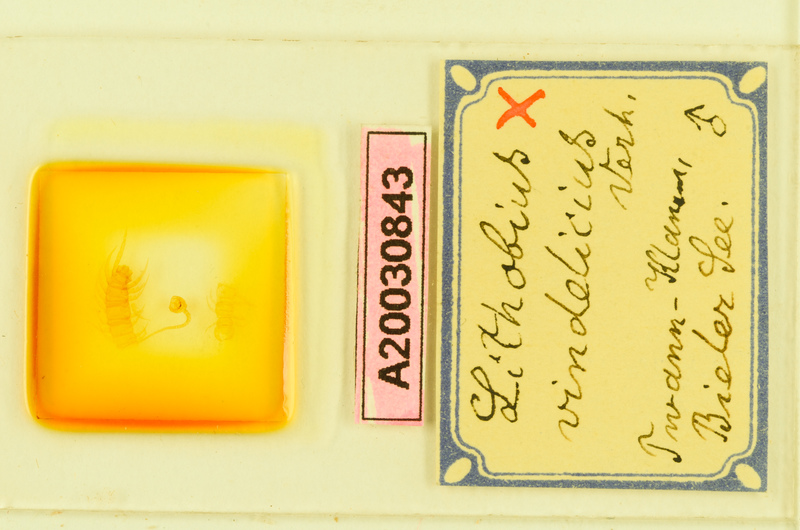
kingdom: Animalia
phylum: Arthropoda
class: Chilopoda
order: Lithobiomorpha
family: Lithobiidae
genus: Lithobius
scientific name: Lithobius subtilis
